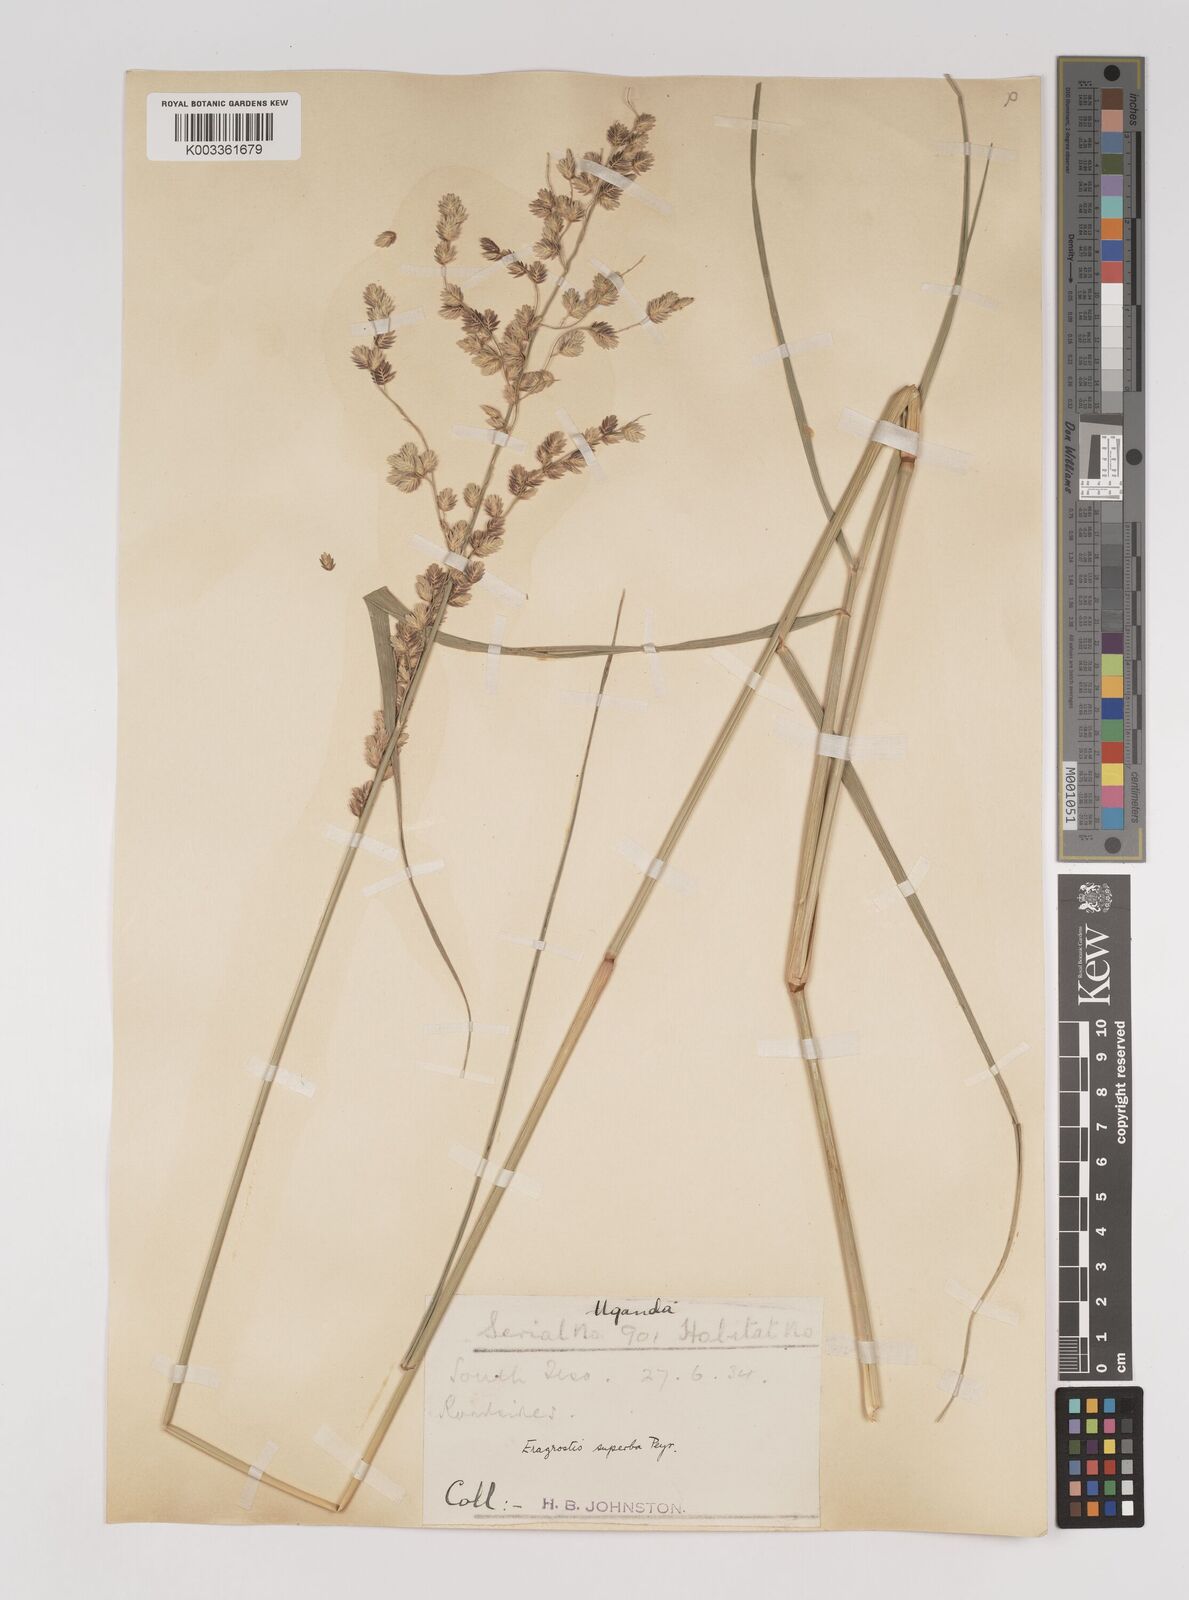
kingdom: Plantae
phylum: Tracheophyta
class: Liliopsida
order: Poales
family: Poaceae
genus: Eragrostis
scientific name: Eragrostis superba
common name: Wilman lovegrass
